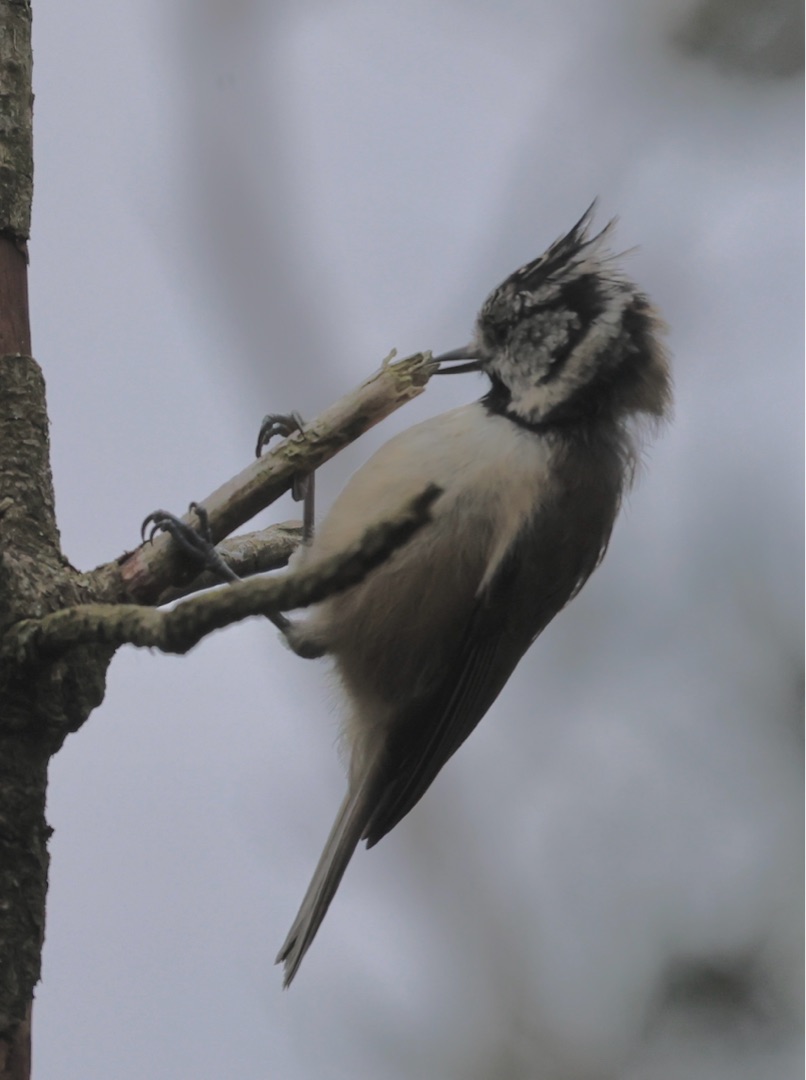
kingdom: Animalia
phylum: Chordata
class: Aves
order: Passeriformes
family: Paridae
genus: Lophophanes
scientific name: Lophophanes cristatus
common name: Topmejse
